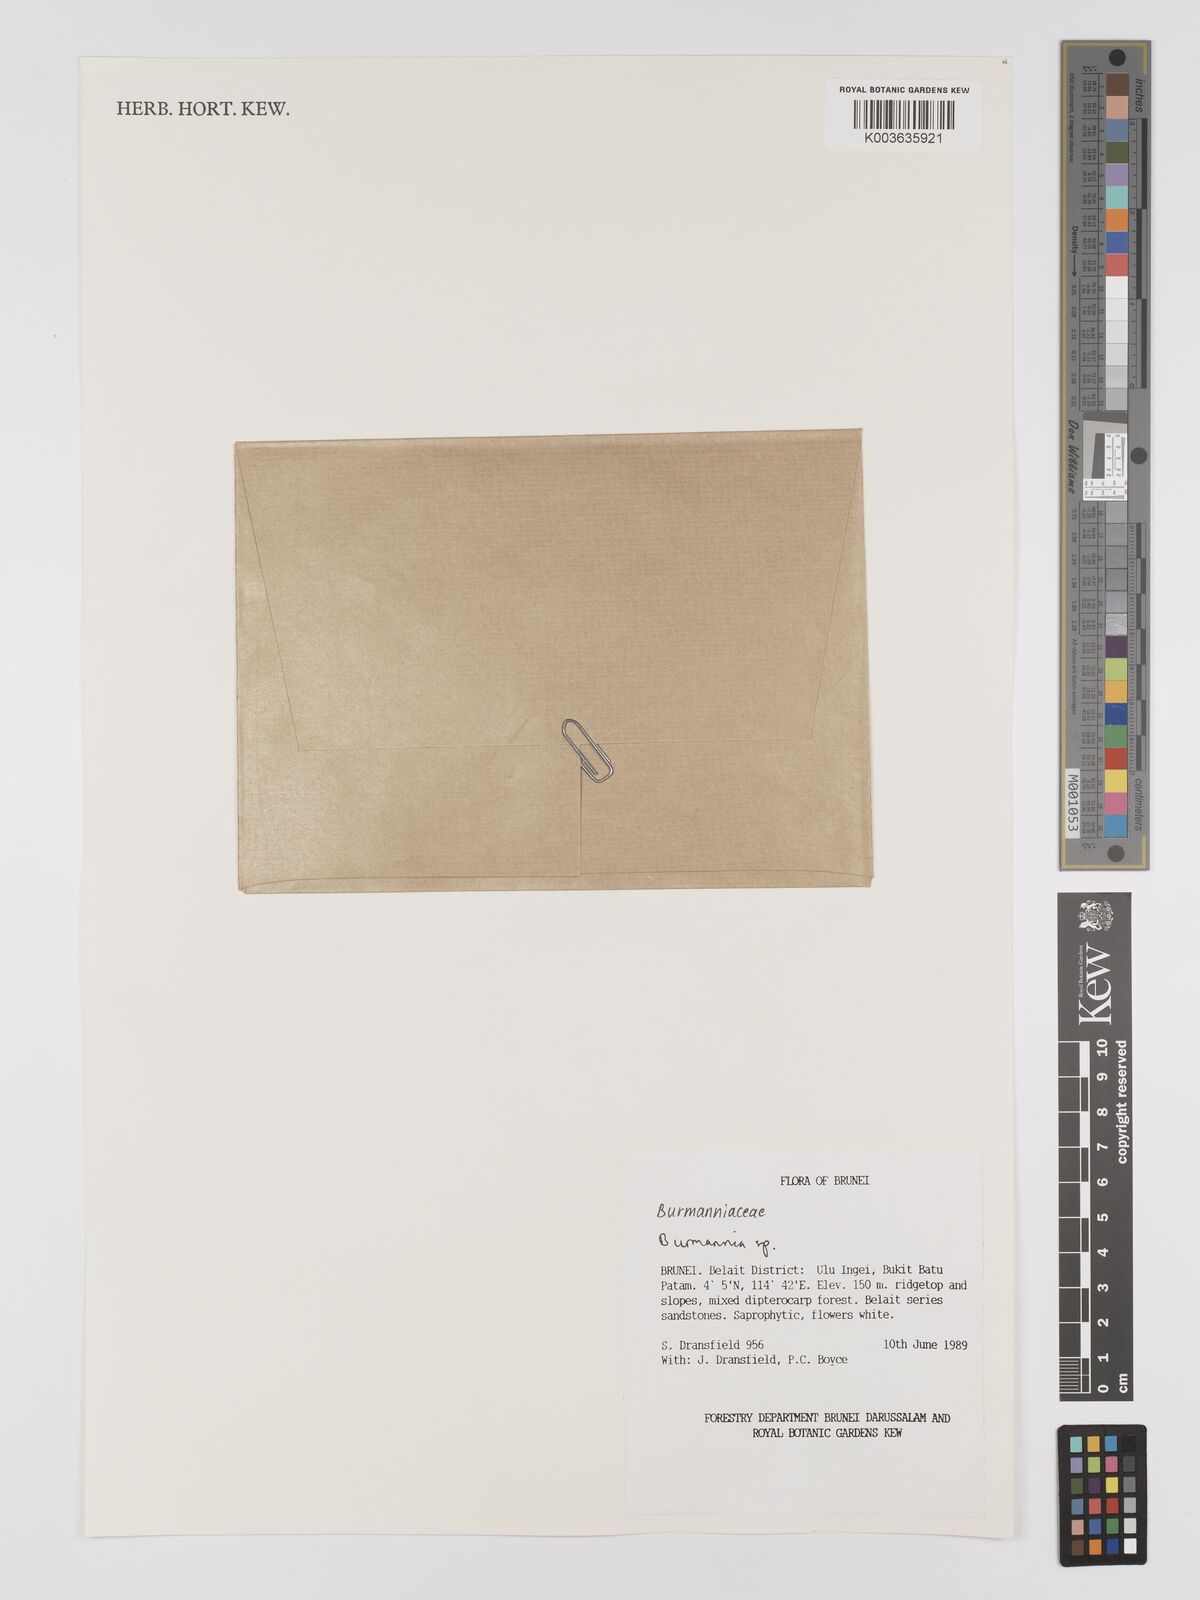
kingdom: Plantae
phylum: Tracheophyta
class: Liliopsida
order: Dioscoreales
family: Burmanniaceae
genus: Burmannia
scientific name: Burmannia
